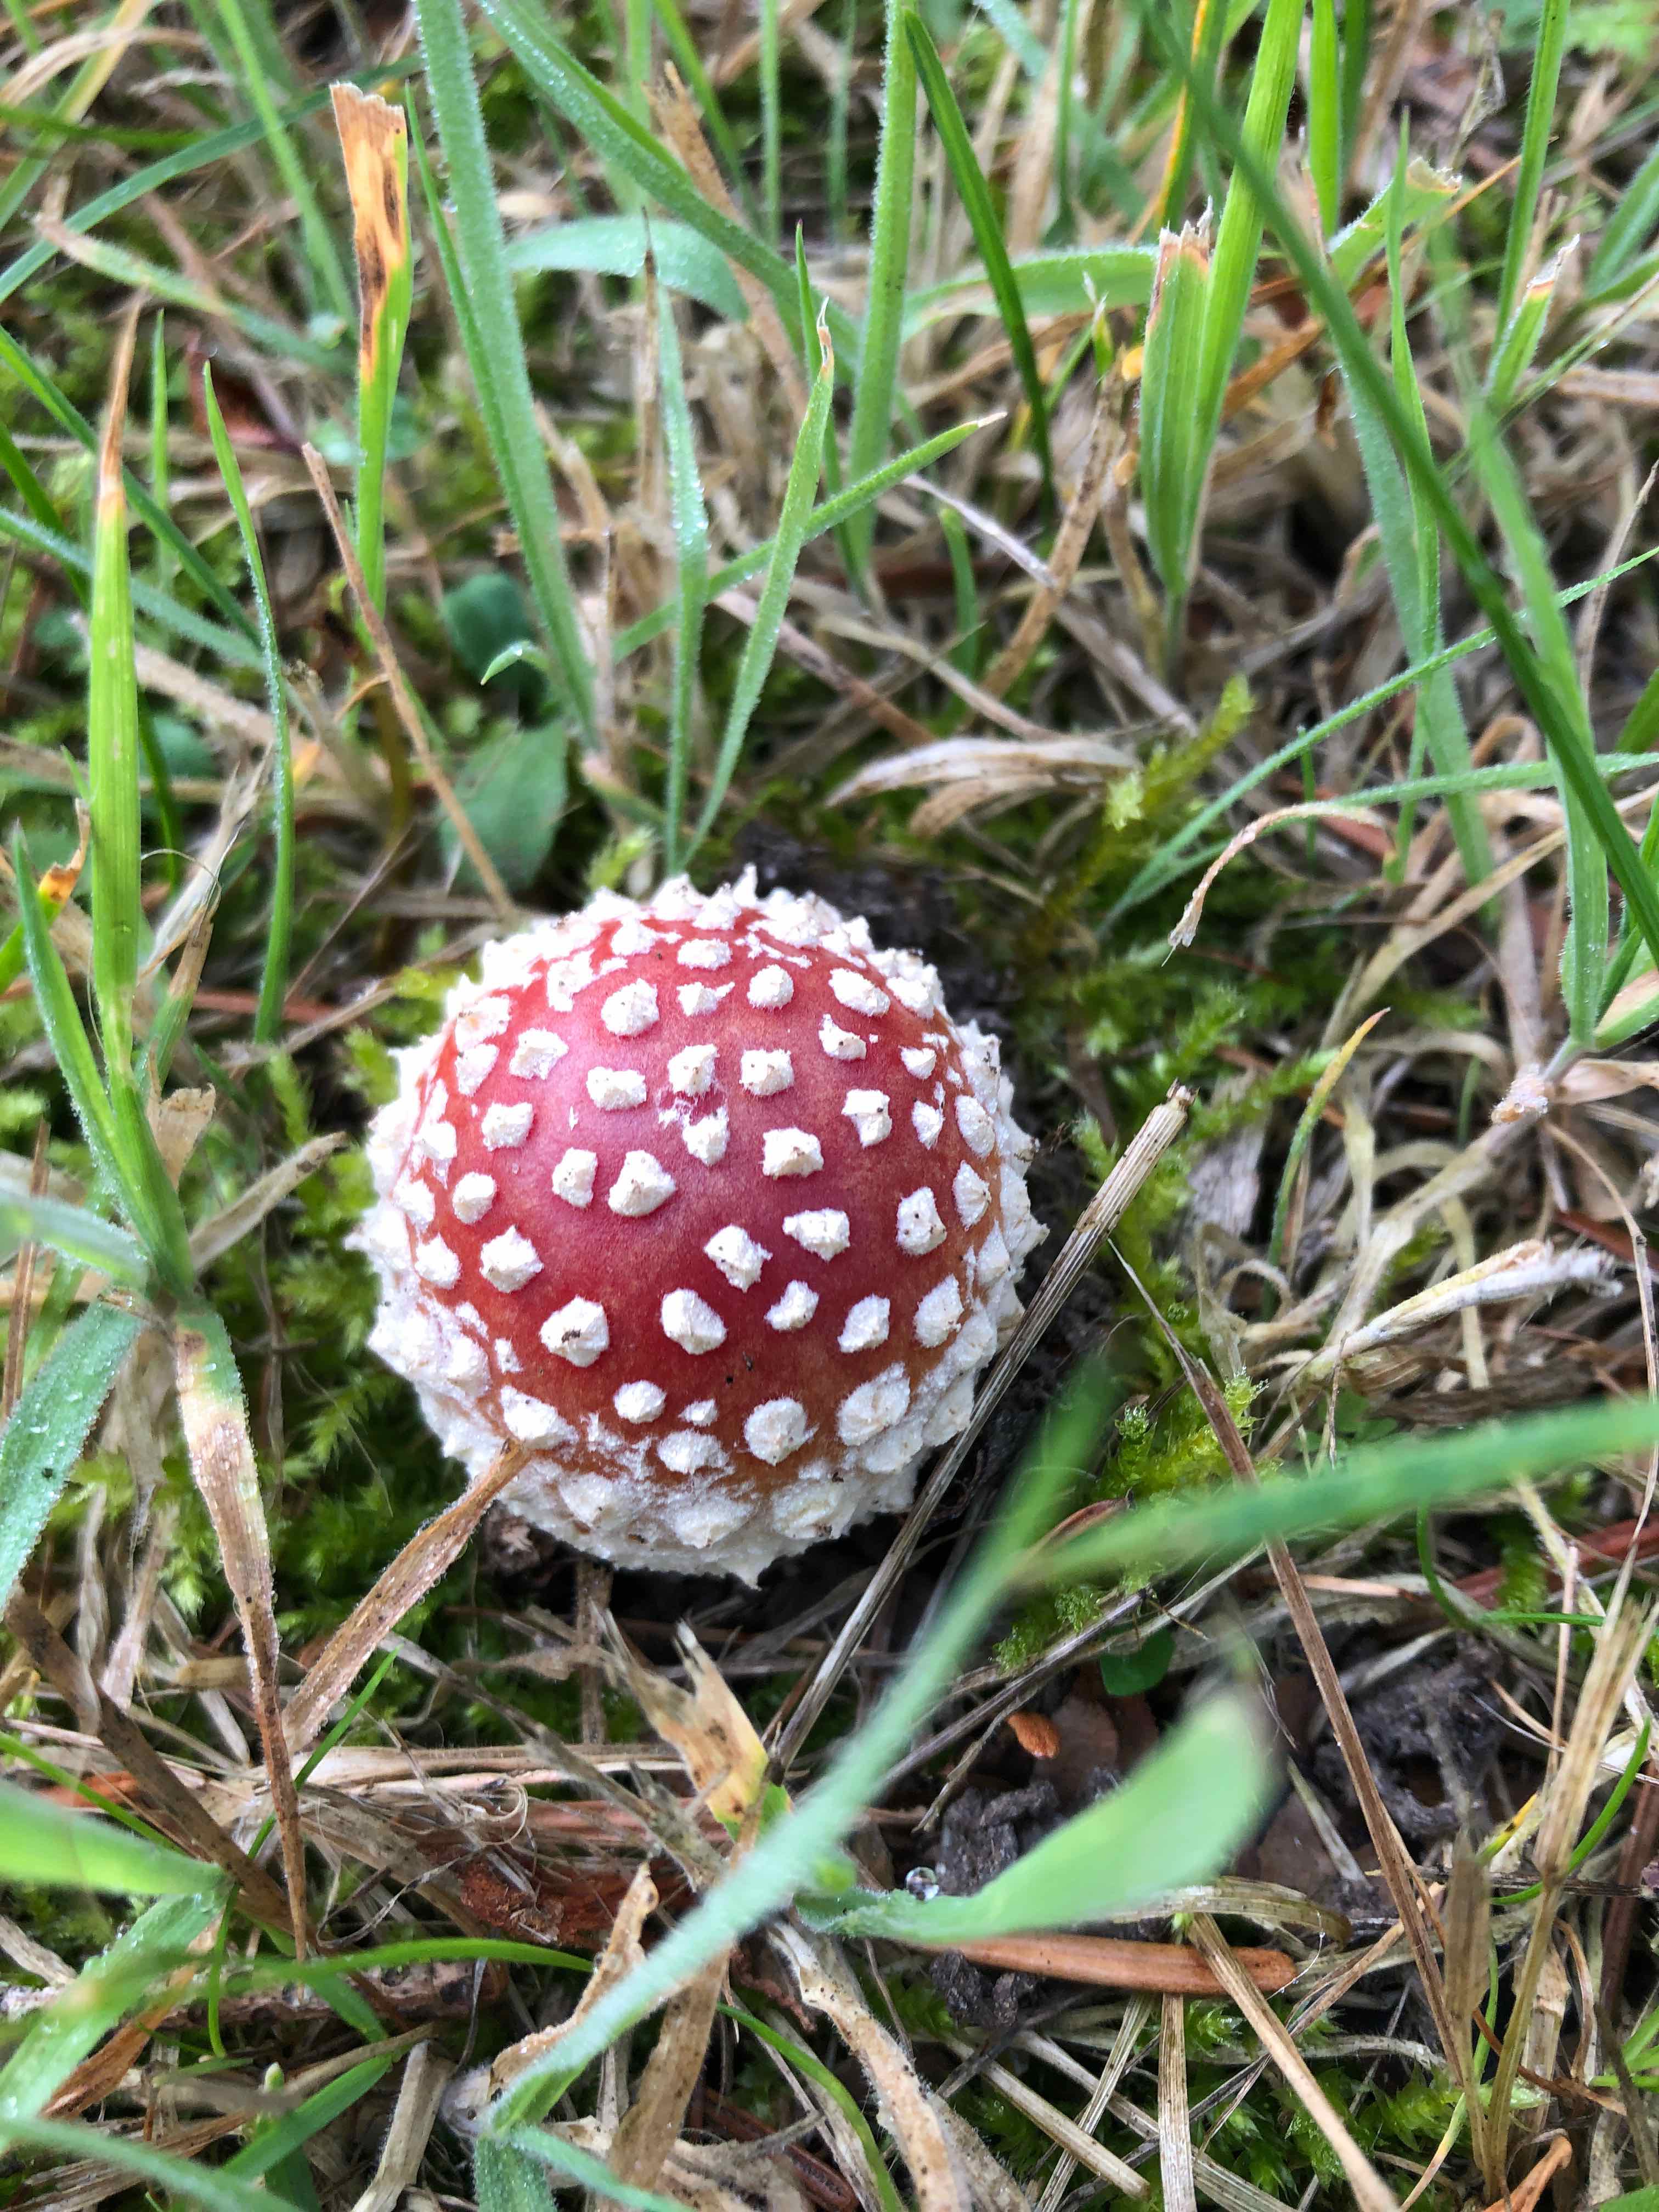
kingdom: Fungi
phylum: Basidiomycota
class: Agaricomycetes
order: Agaricales
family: Amanitaceae
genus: Amanita
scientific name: Amanita muscaria
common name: rød fluesvamp
